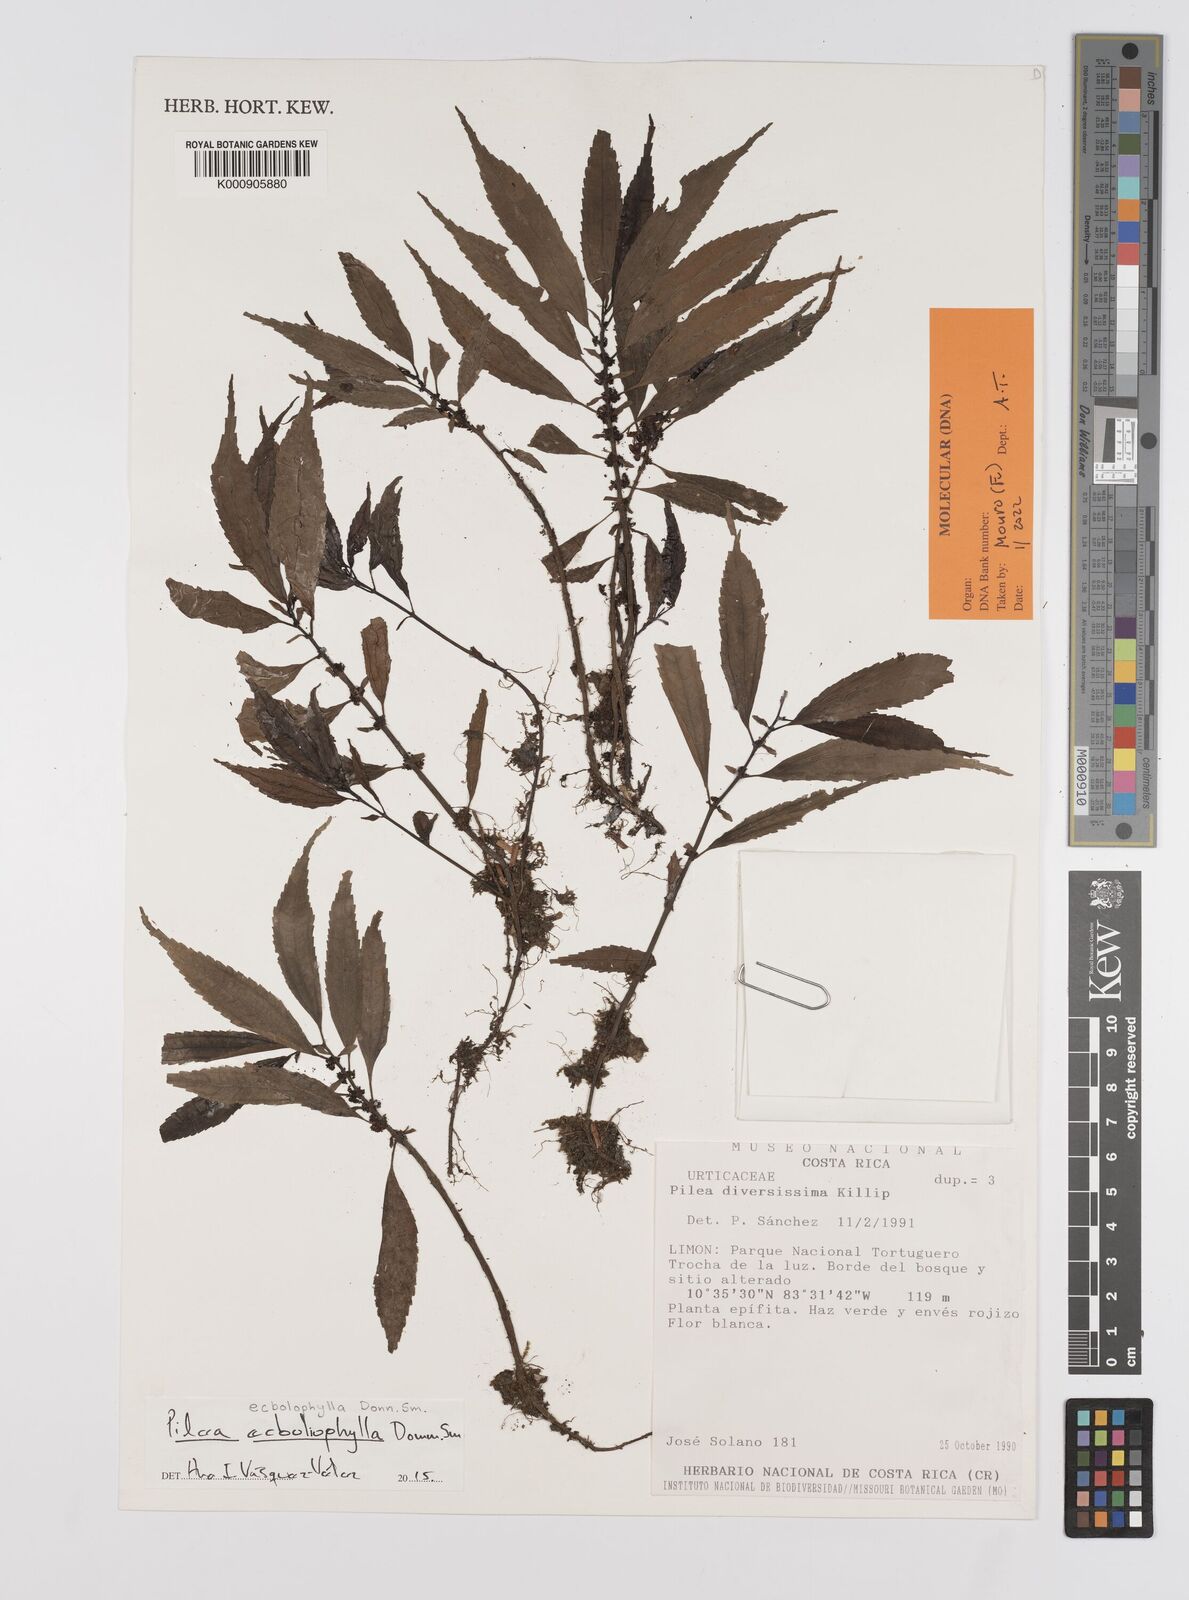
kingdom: Plantae
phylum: Tracheophyta
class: Magnoliopsida
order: Rosales
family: Urticaceae
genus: Pilea
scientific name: Pilea
